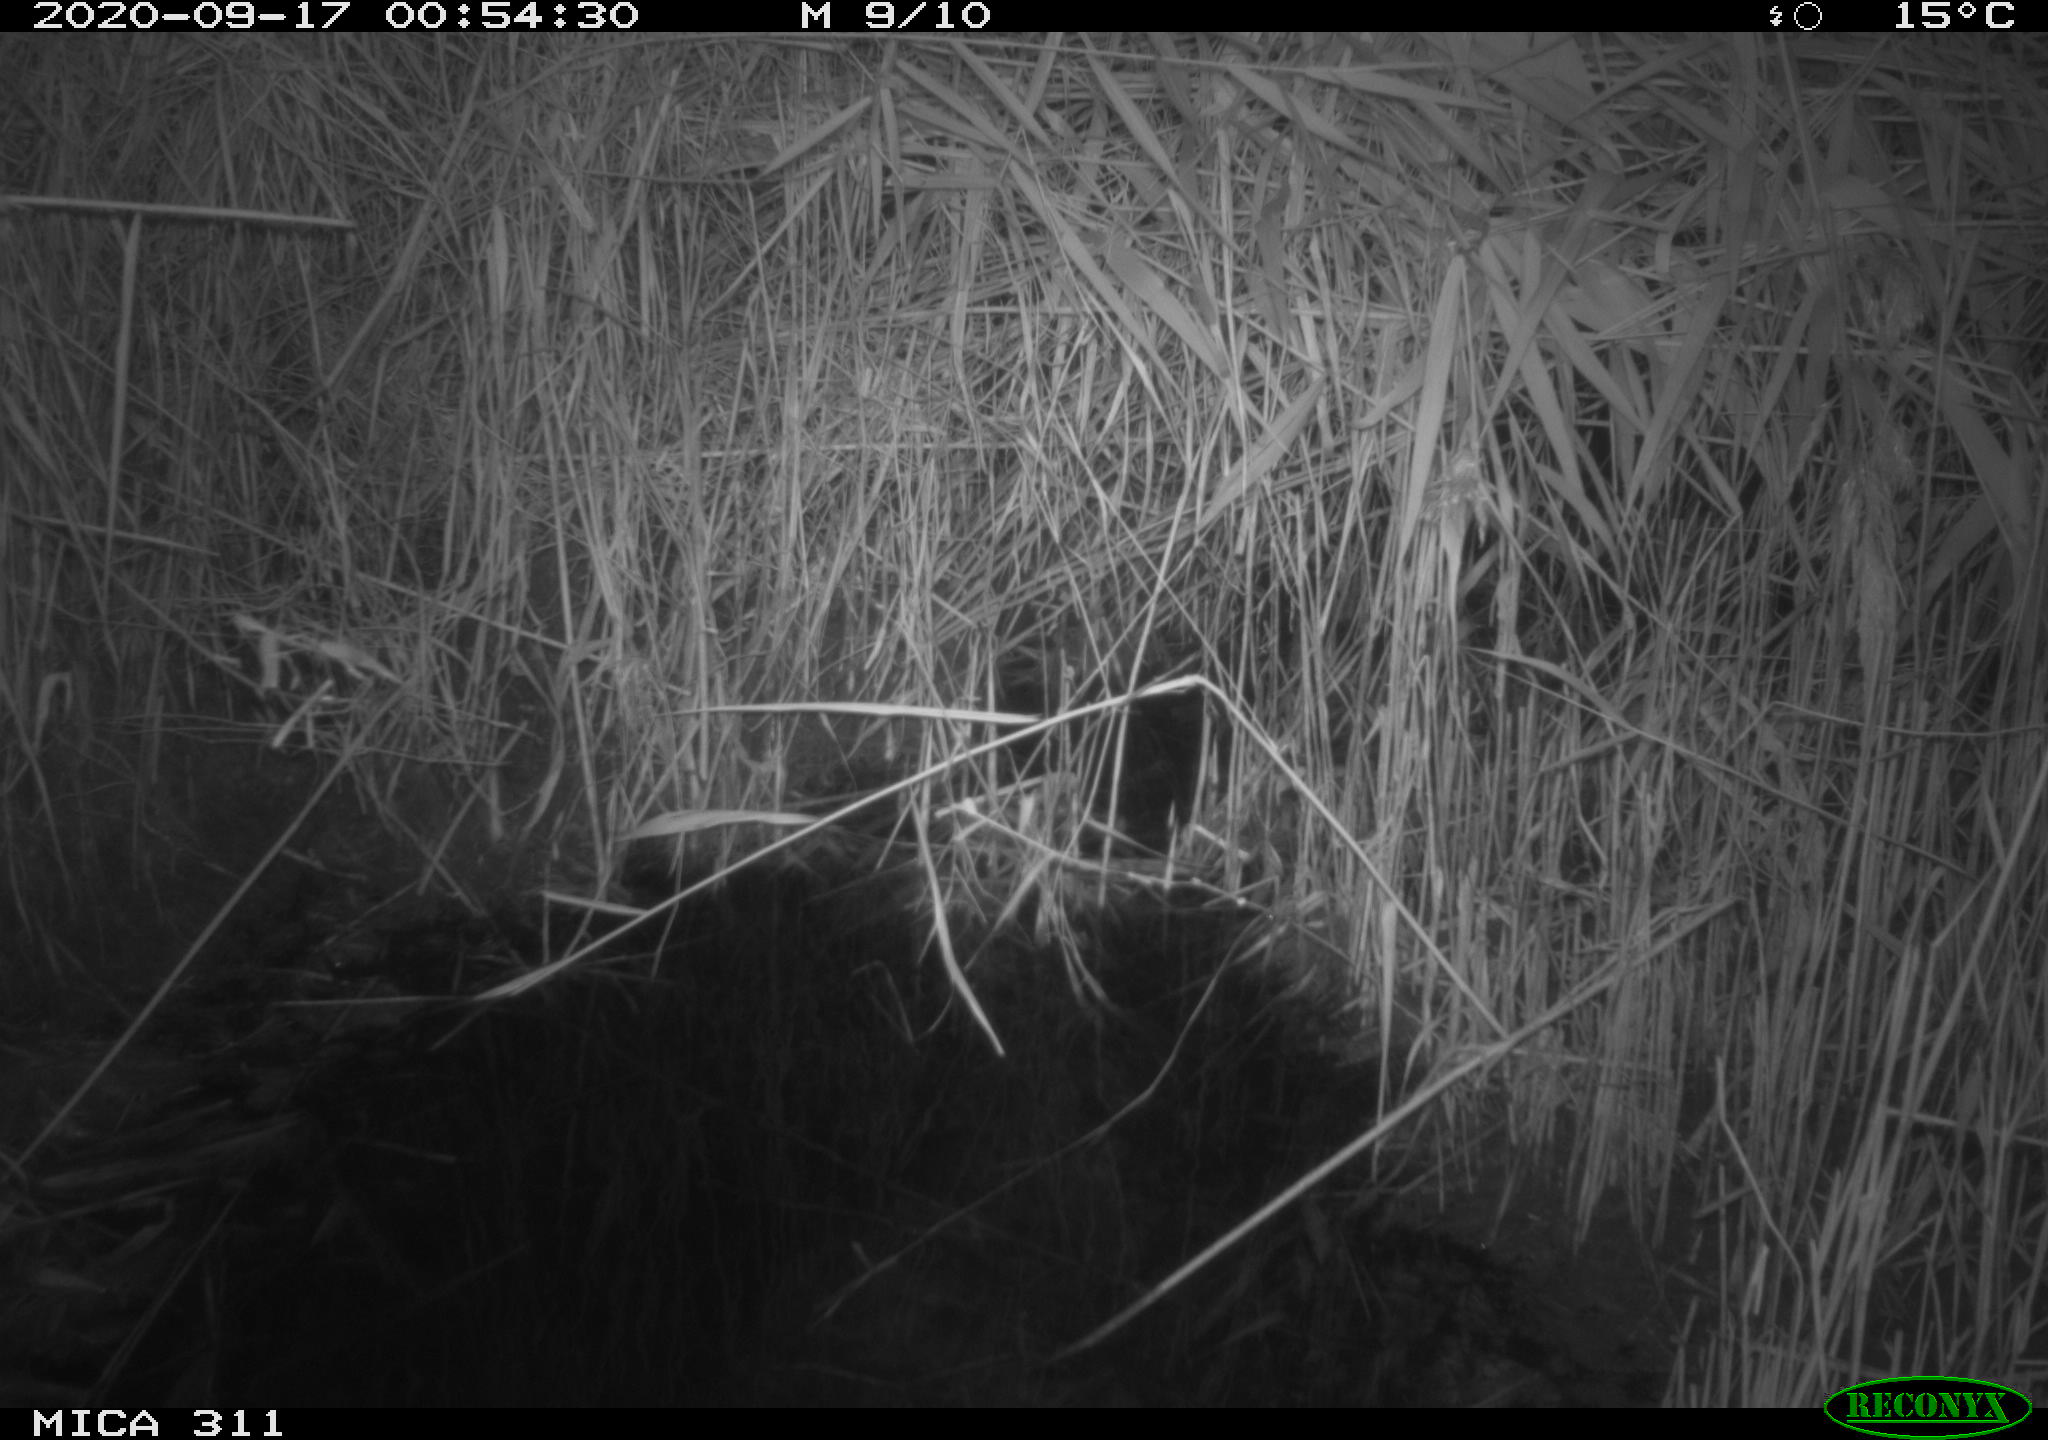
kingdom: Animalia
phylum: Chordata
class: Mammalia
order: Rodentia
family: Muridae
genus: Rattus
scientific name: Rattus norvegicus
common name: Brown rat
